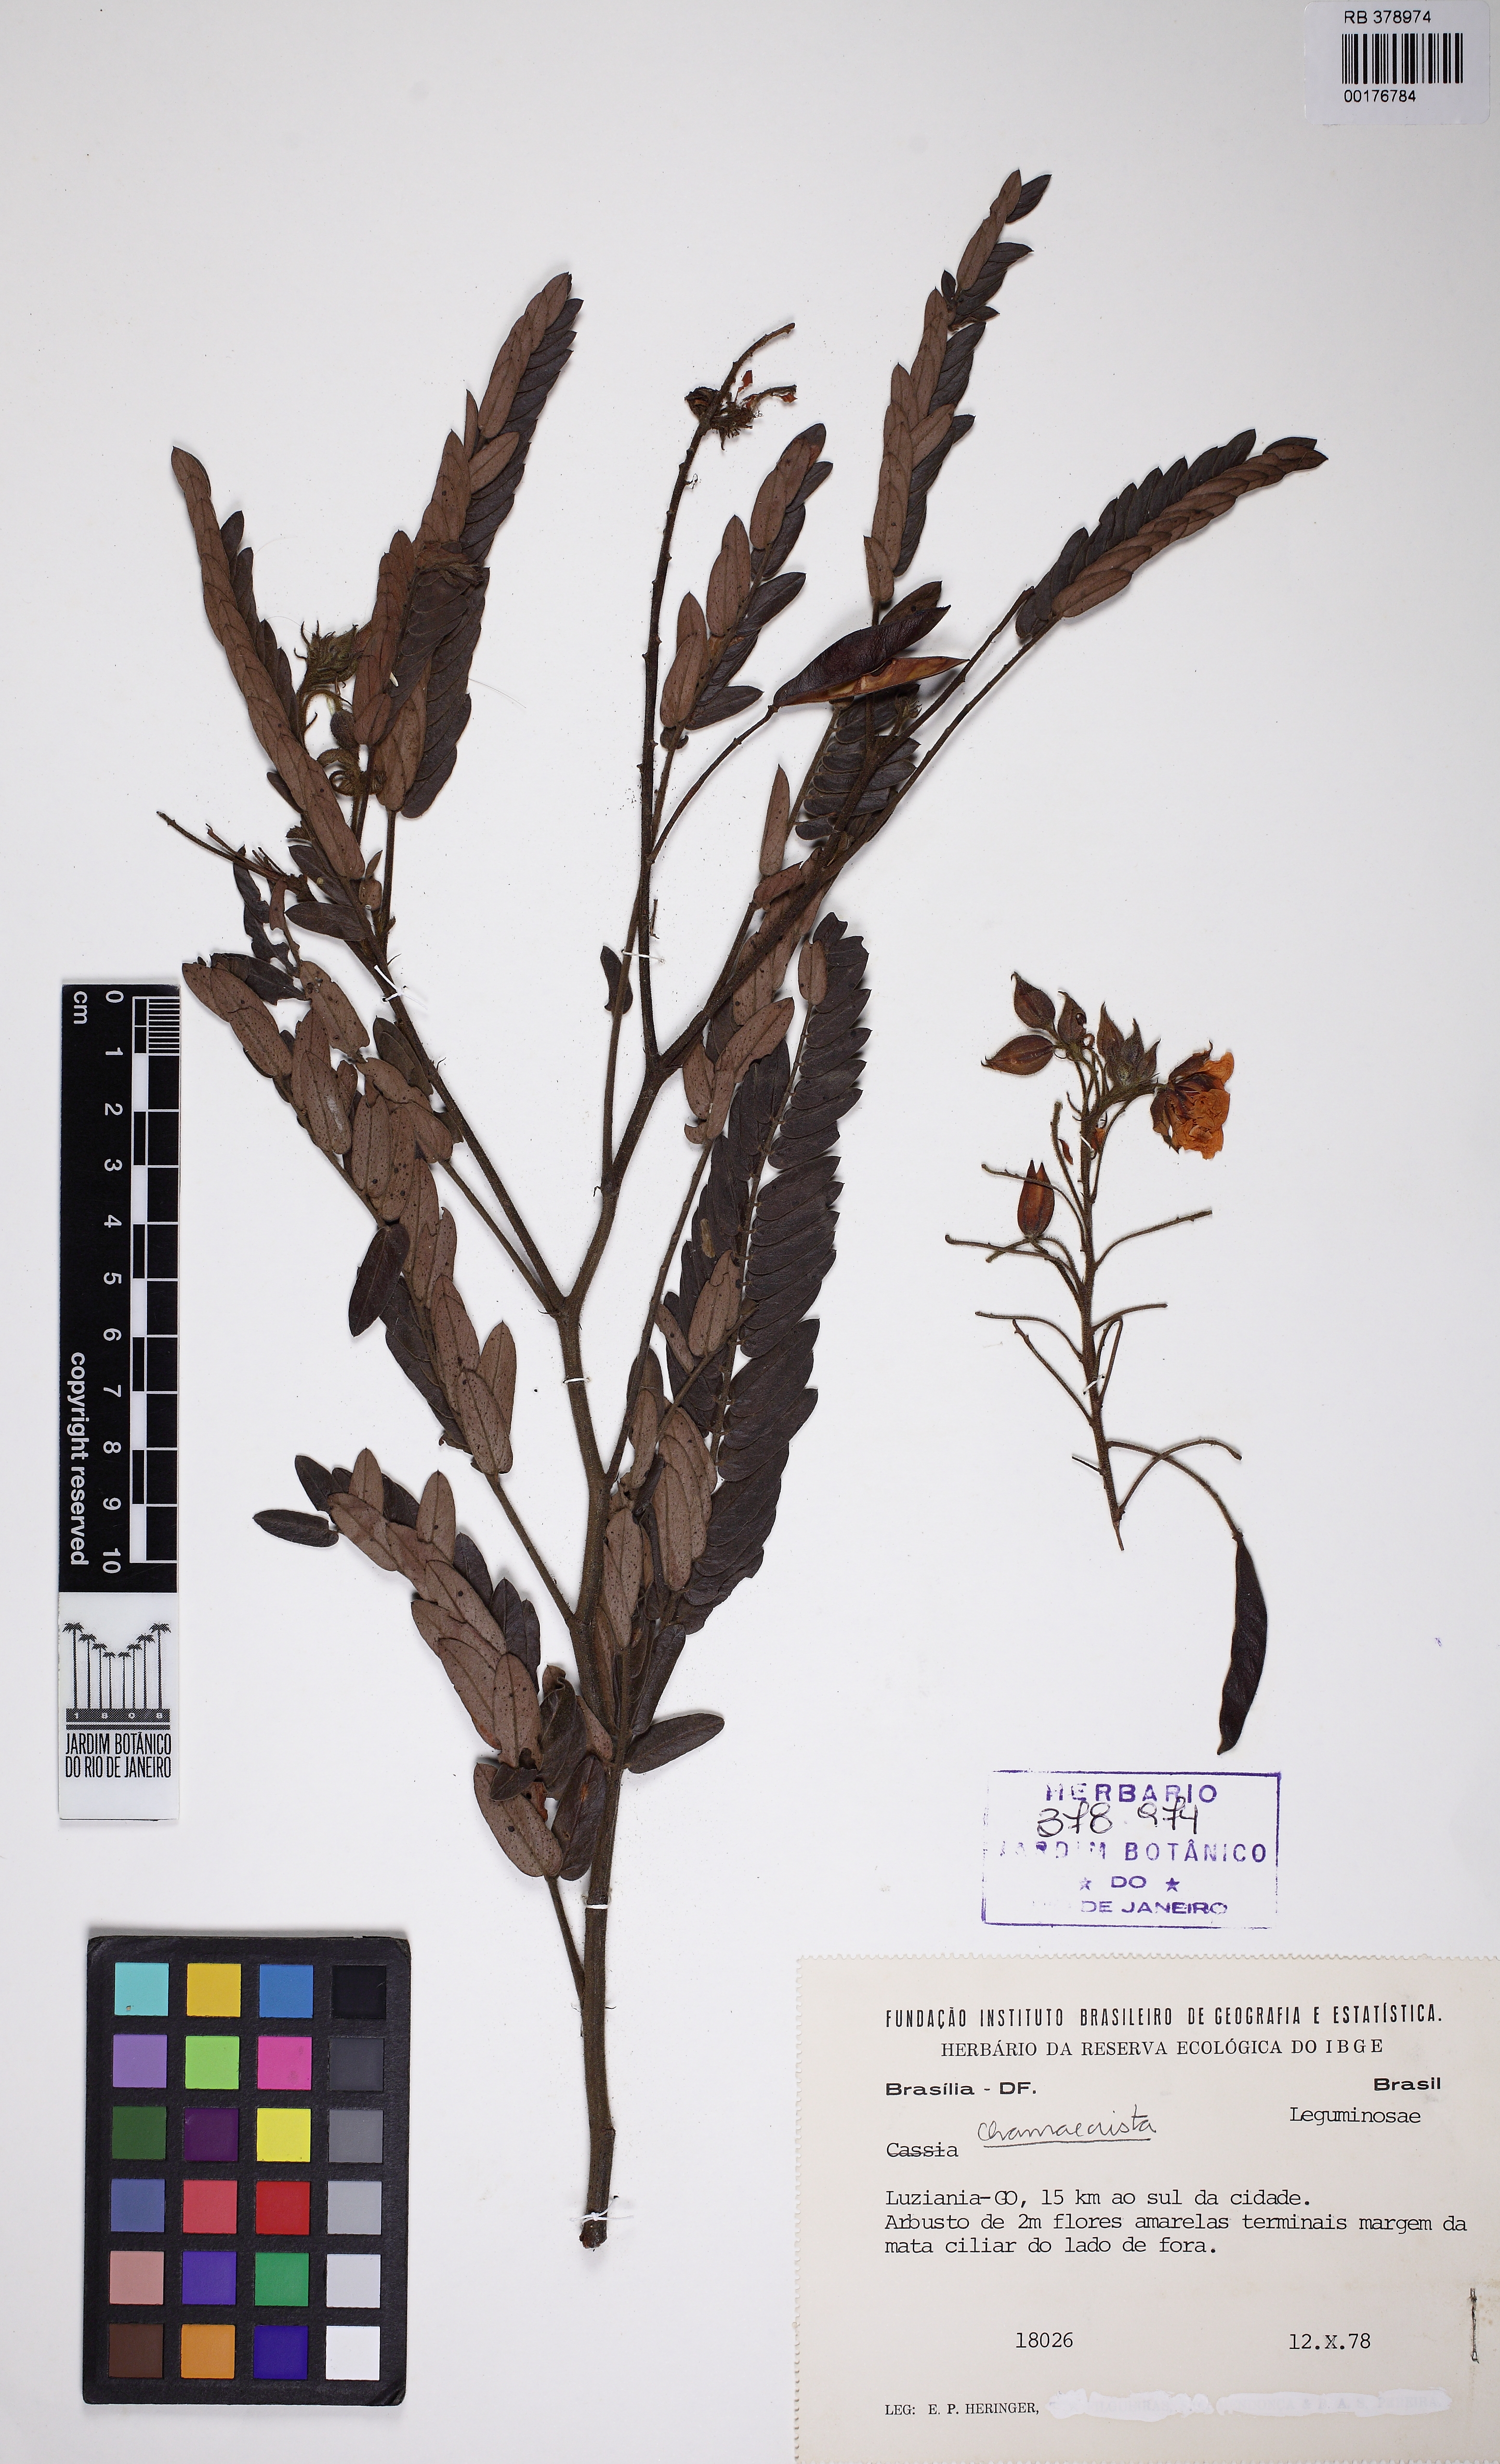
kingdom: Plantae
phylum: Tracheophyta
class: Magnoliopsida
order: Fabales
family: Fabaceae
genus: Chamaecrista
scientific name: Chamaecrista
